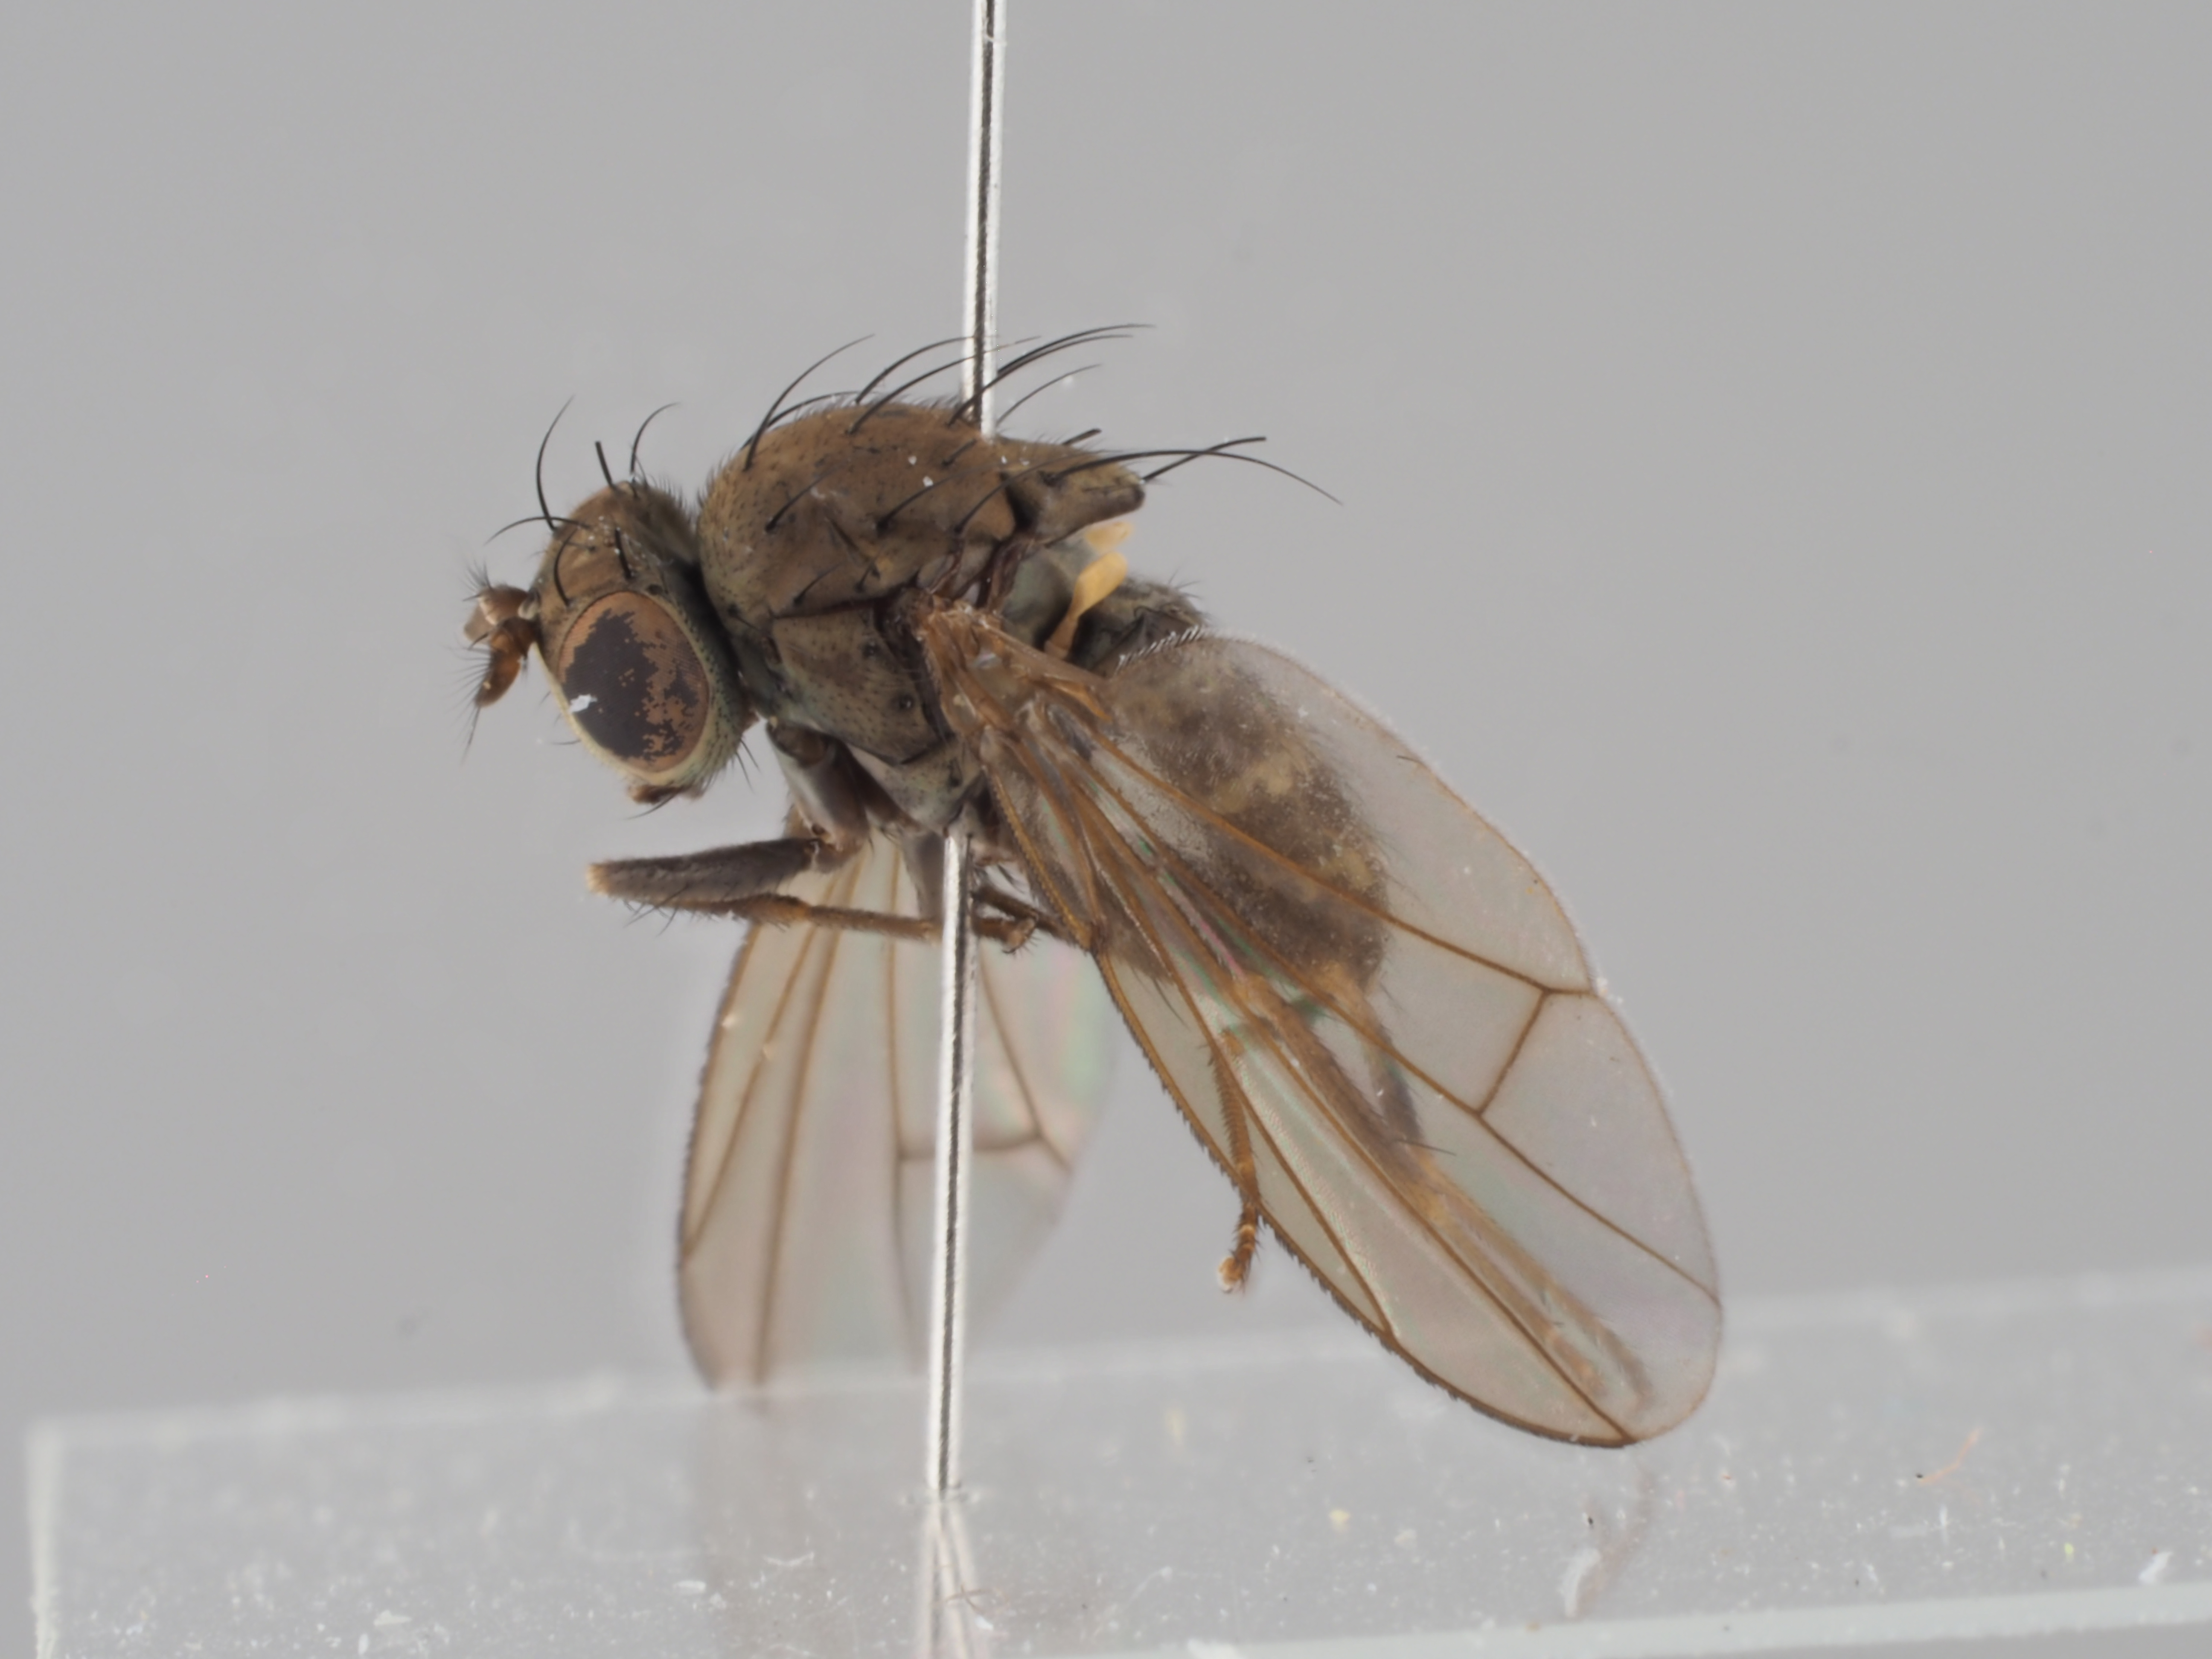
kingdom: Animalia
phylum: Arthropoda
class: Insecta
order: Diptera
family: Ephydridae
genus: Notiphila
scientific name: Notiphila graecula
